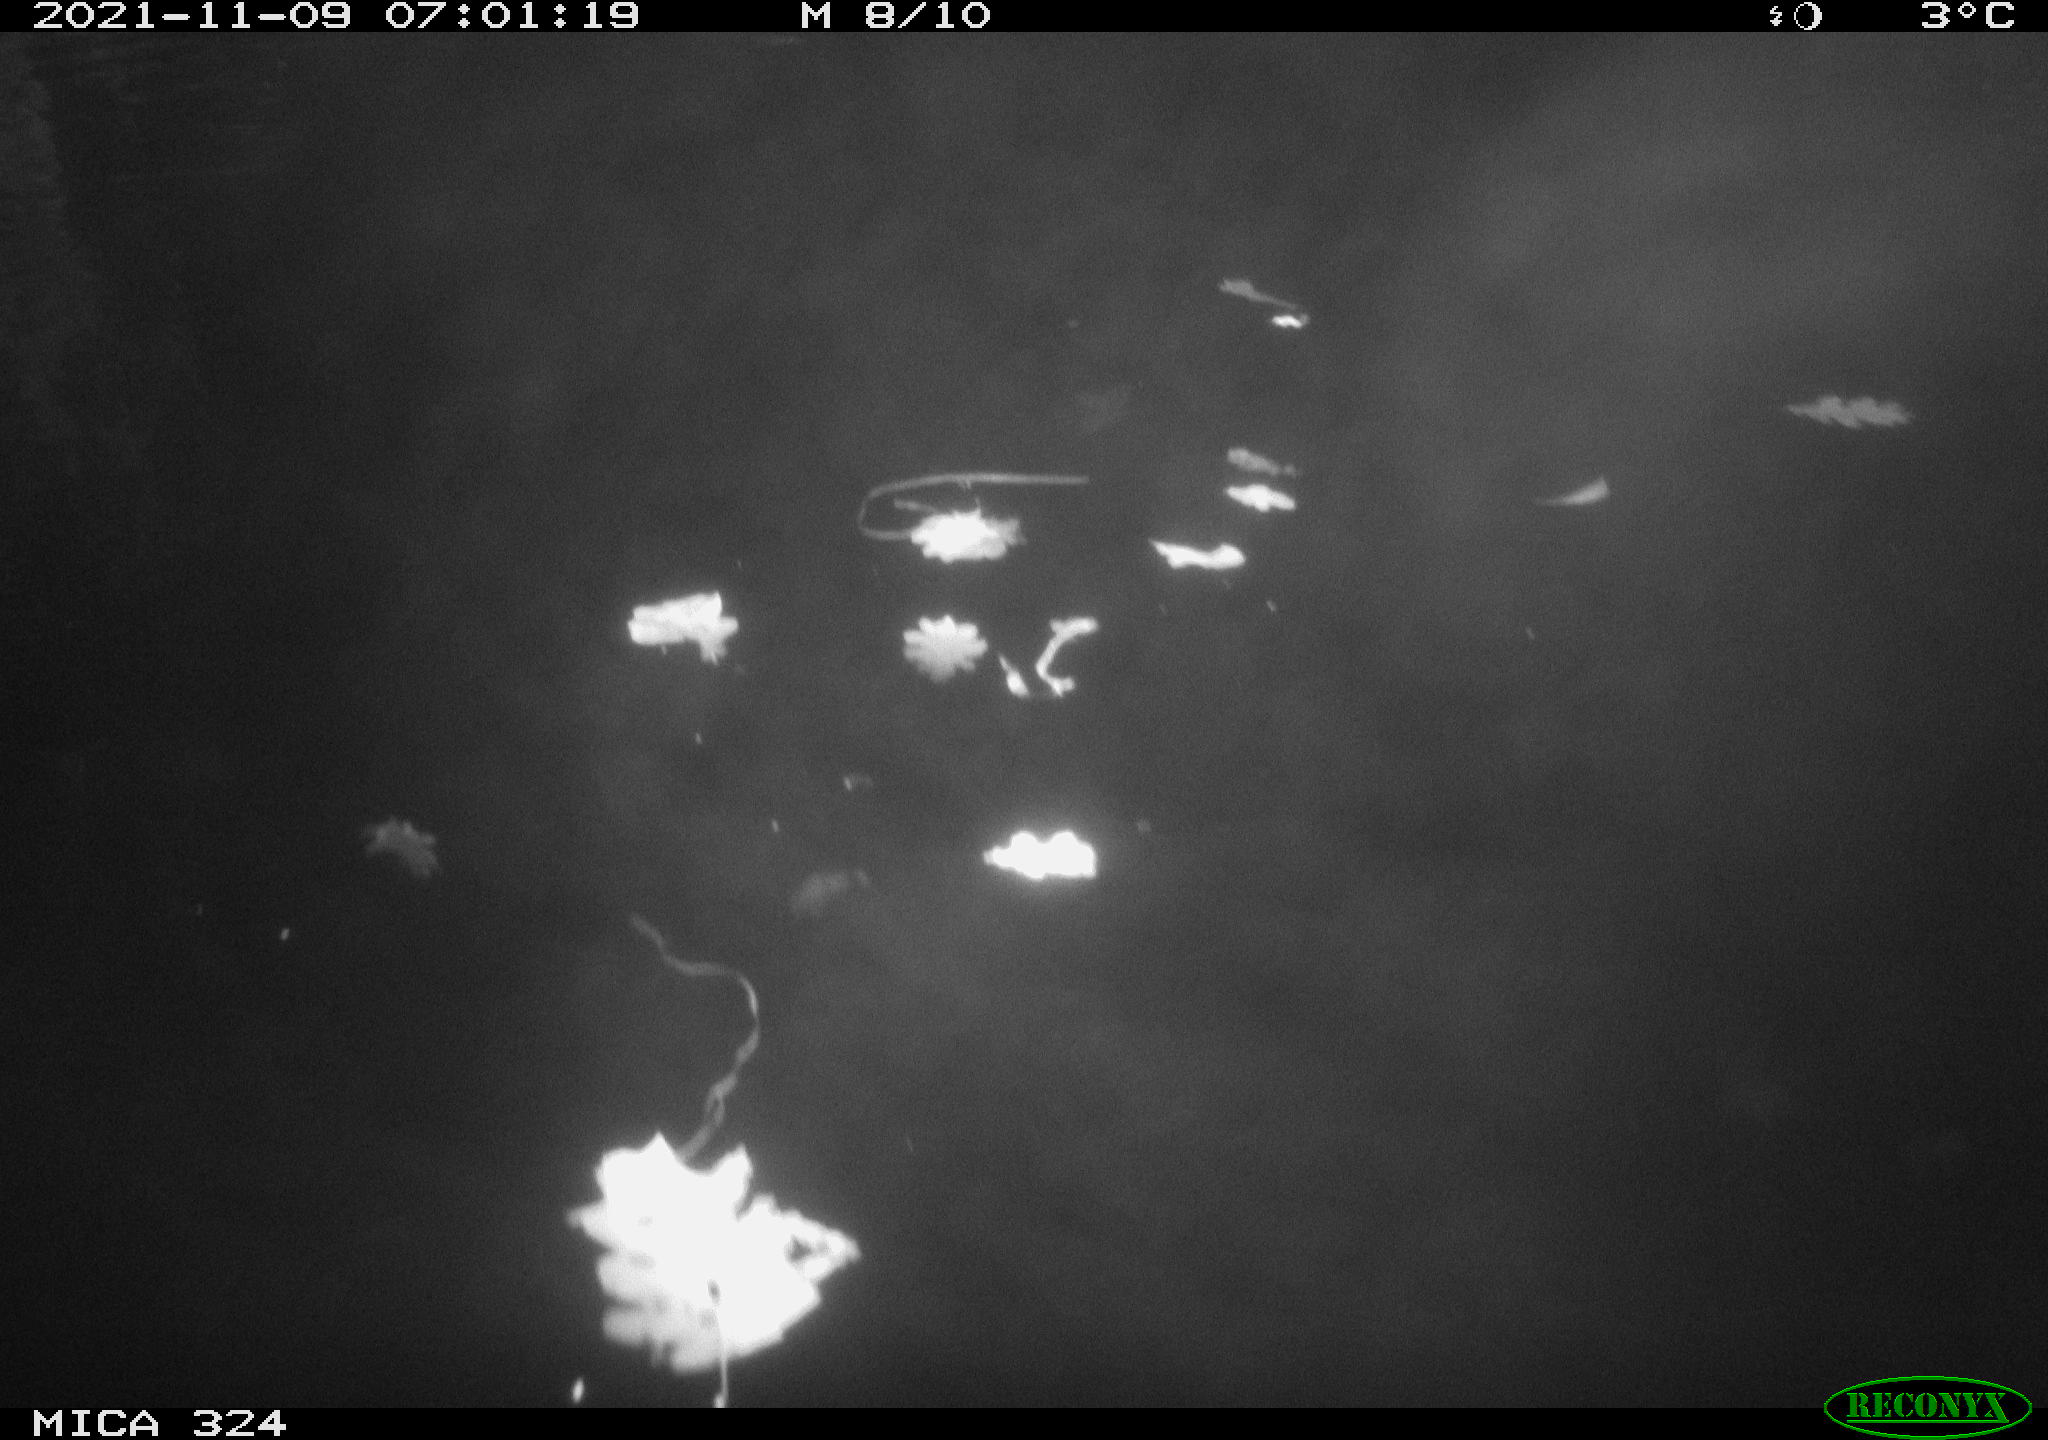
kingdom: Animalia
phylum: Chordata
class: Mammalia
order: Rodentia
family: Cricetidae
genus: Ondatra
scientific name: Ondatra zibethicus
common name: Muskrat
